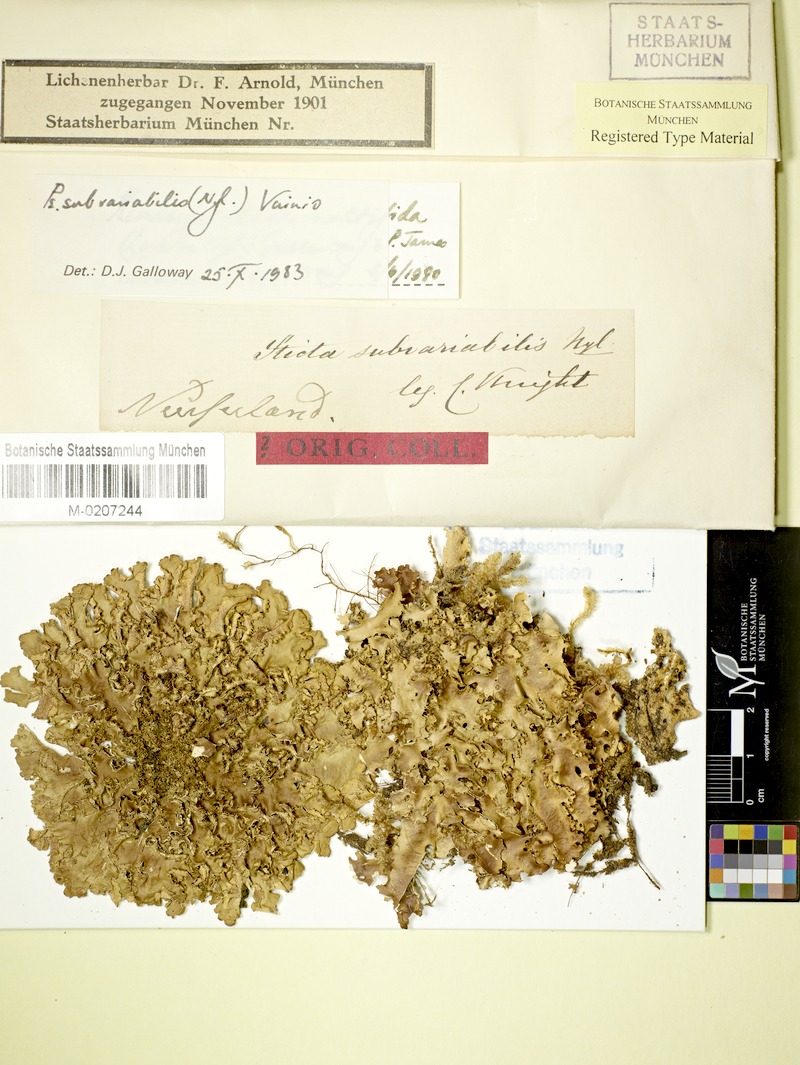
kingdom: Fungi
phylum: Ascomycota
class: Lecanoromycetes
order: Peltigerales
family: Lobariaceae
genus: Pseudocyphellaria
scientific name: Pseudocyphellaria multifida
